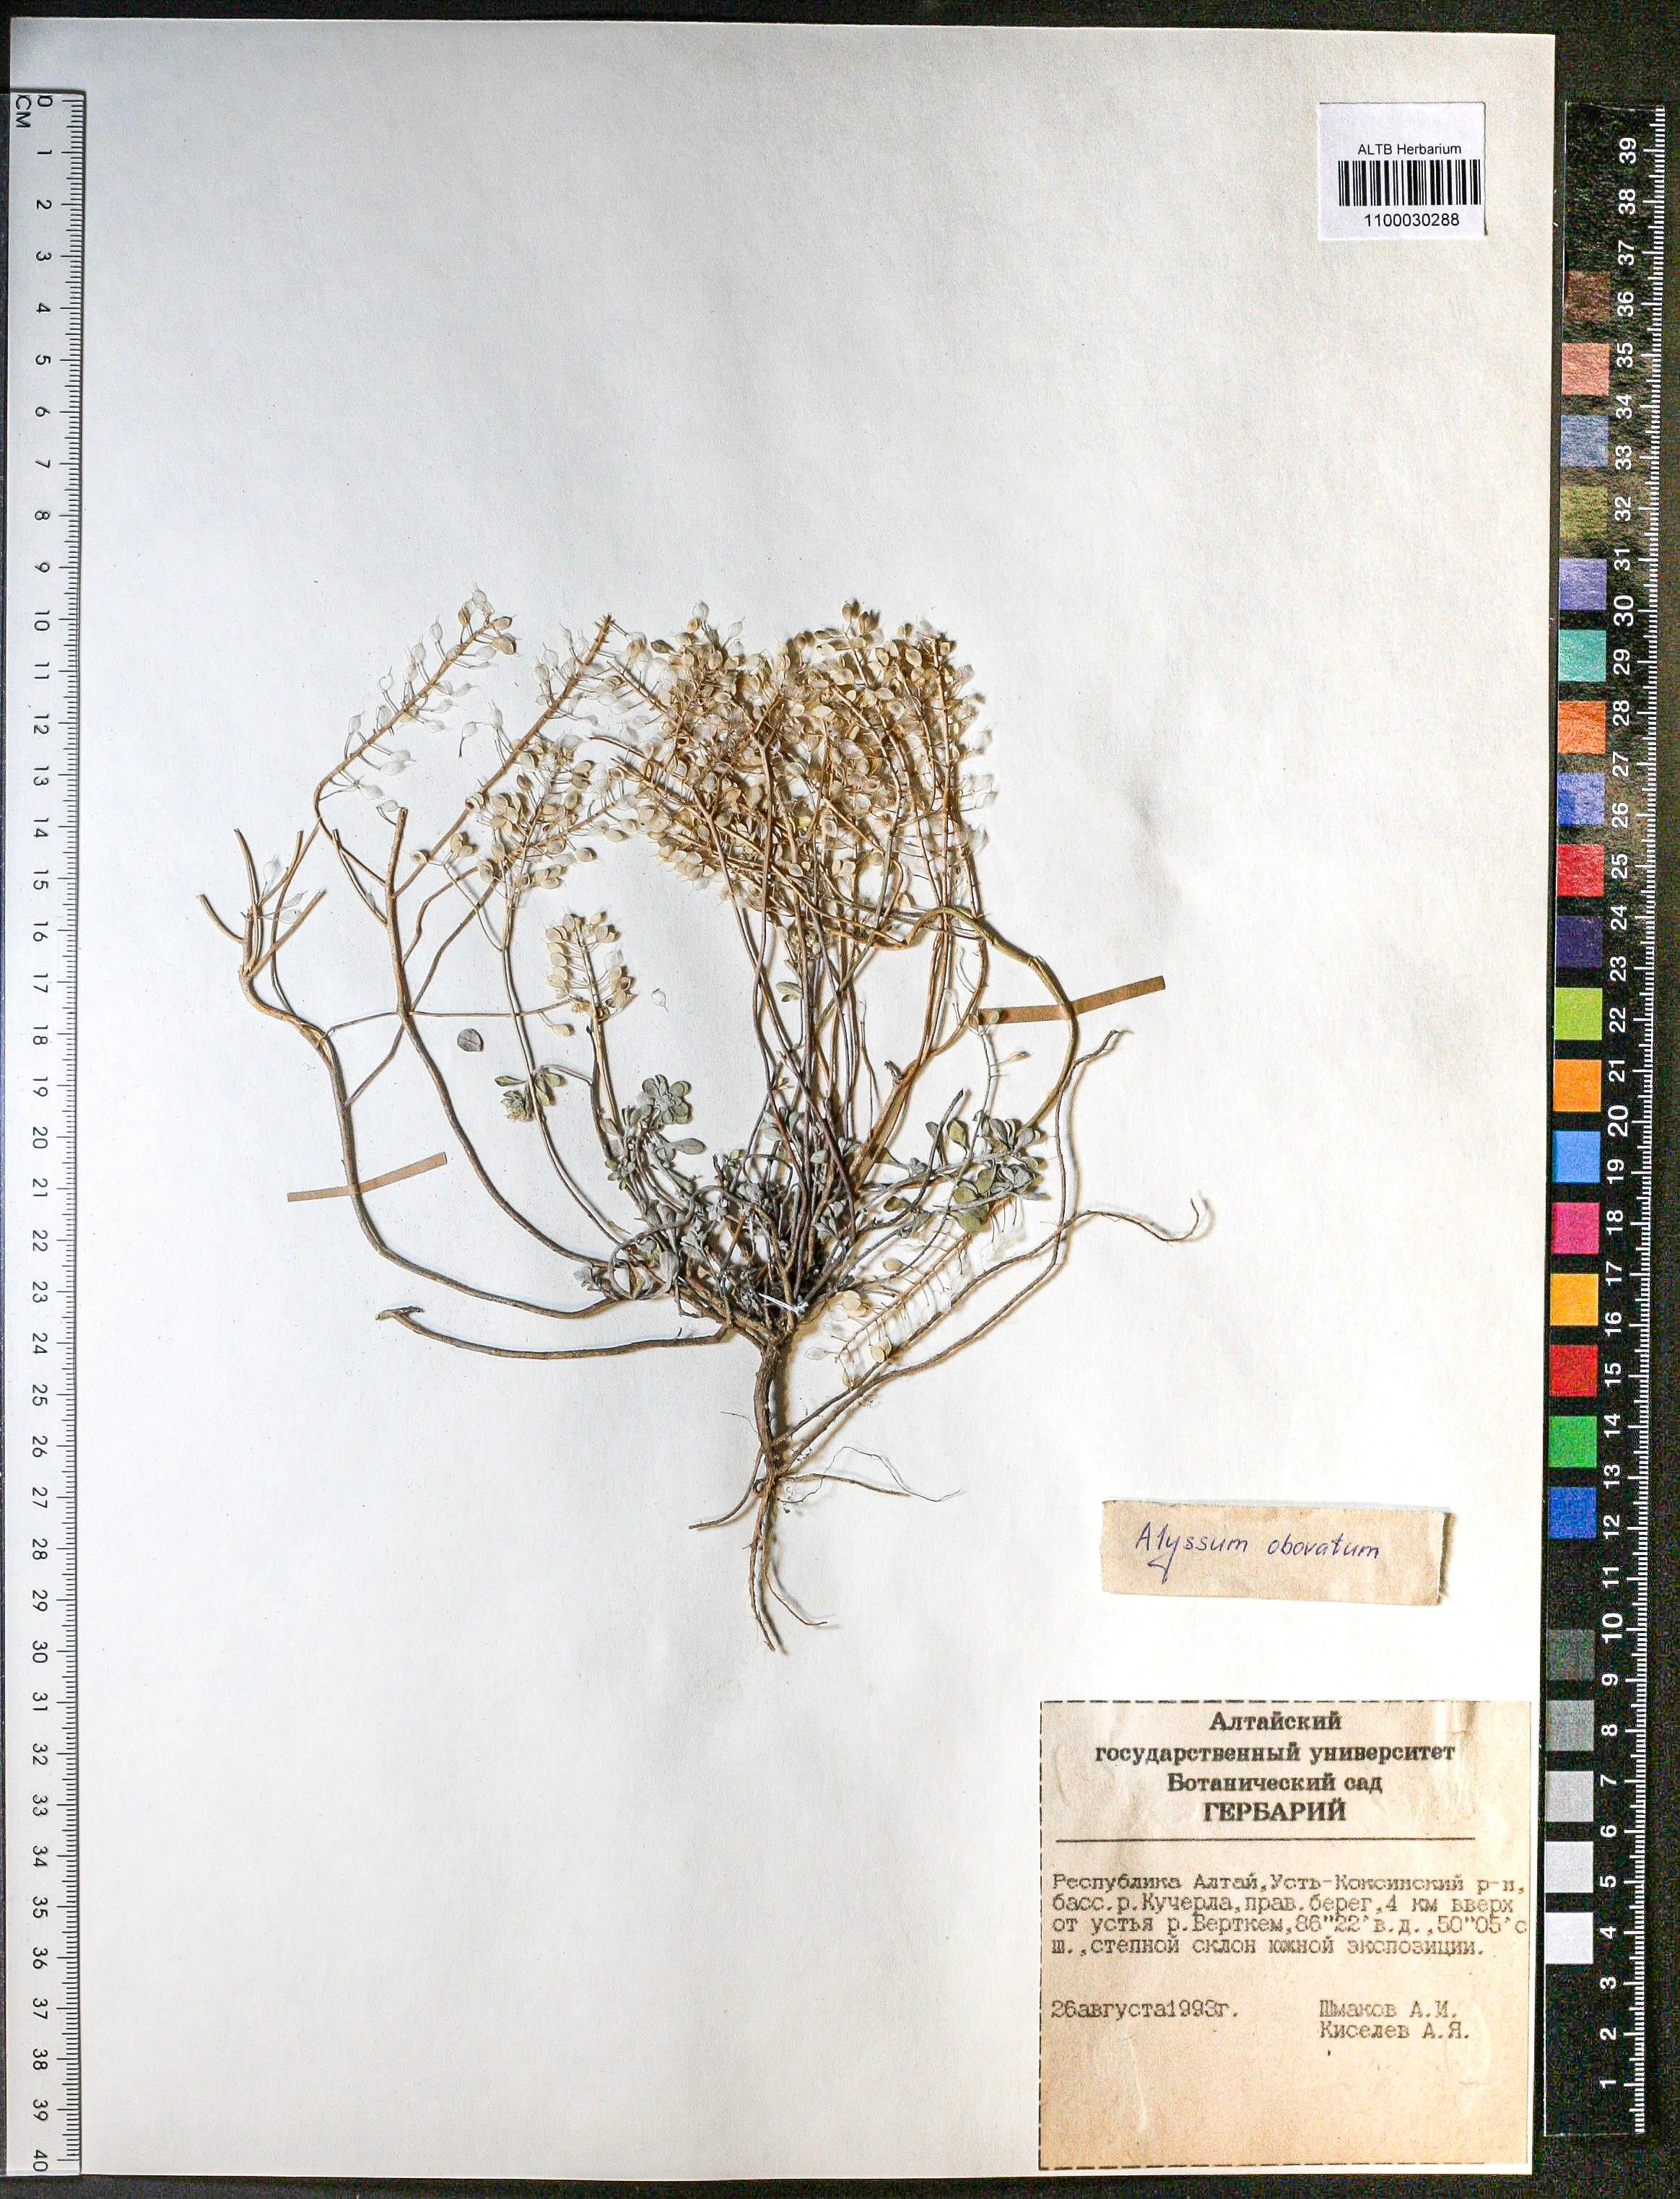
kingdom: Plantae
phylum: Tracheophyta
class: Magnoliopsida
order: Brassicales
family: Brassicaceae
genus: Odontarrhena
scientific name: Odontarrhena obovata
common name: American alyssum
